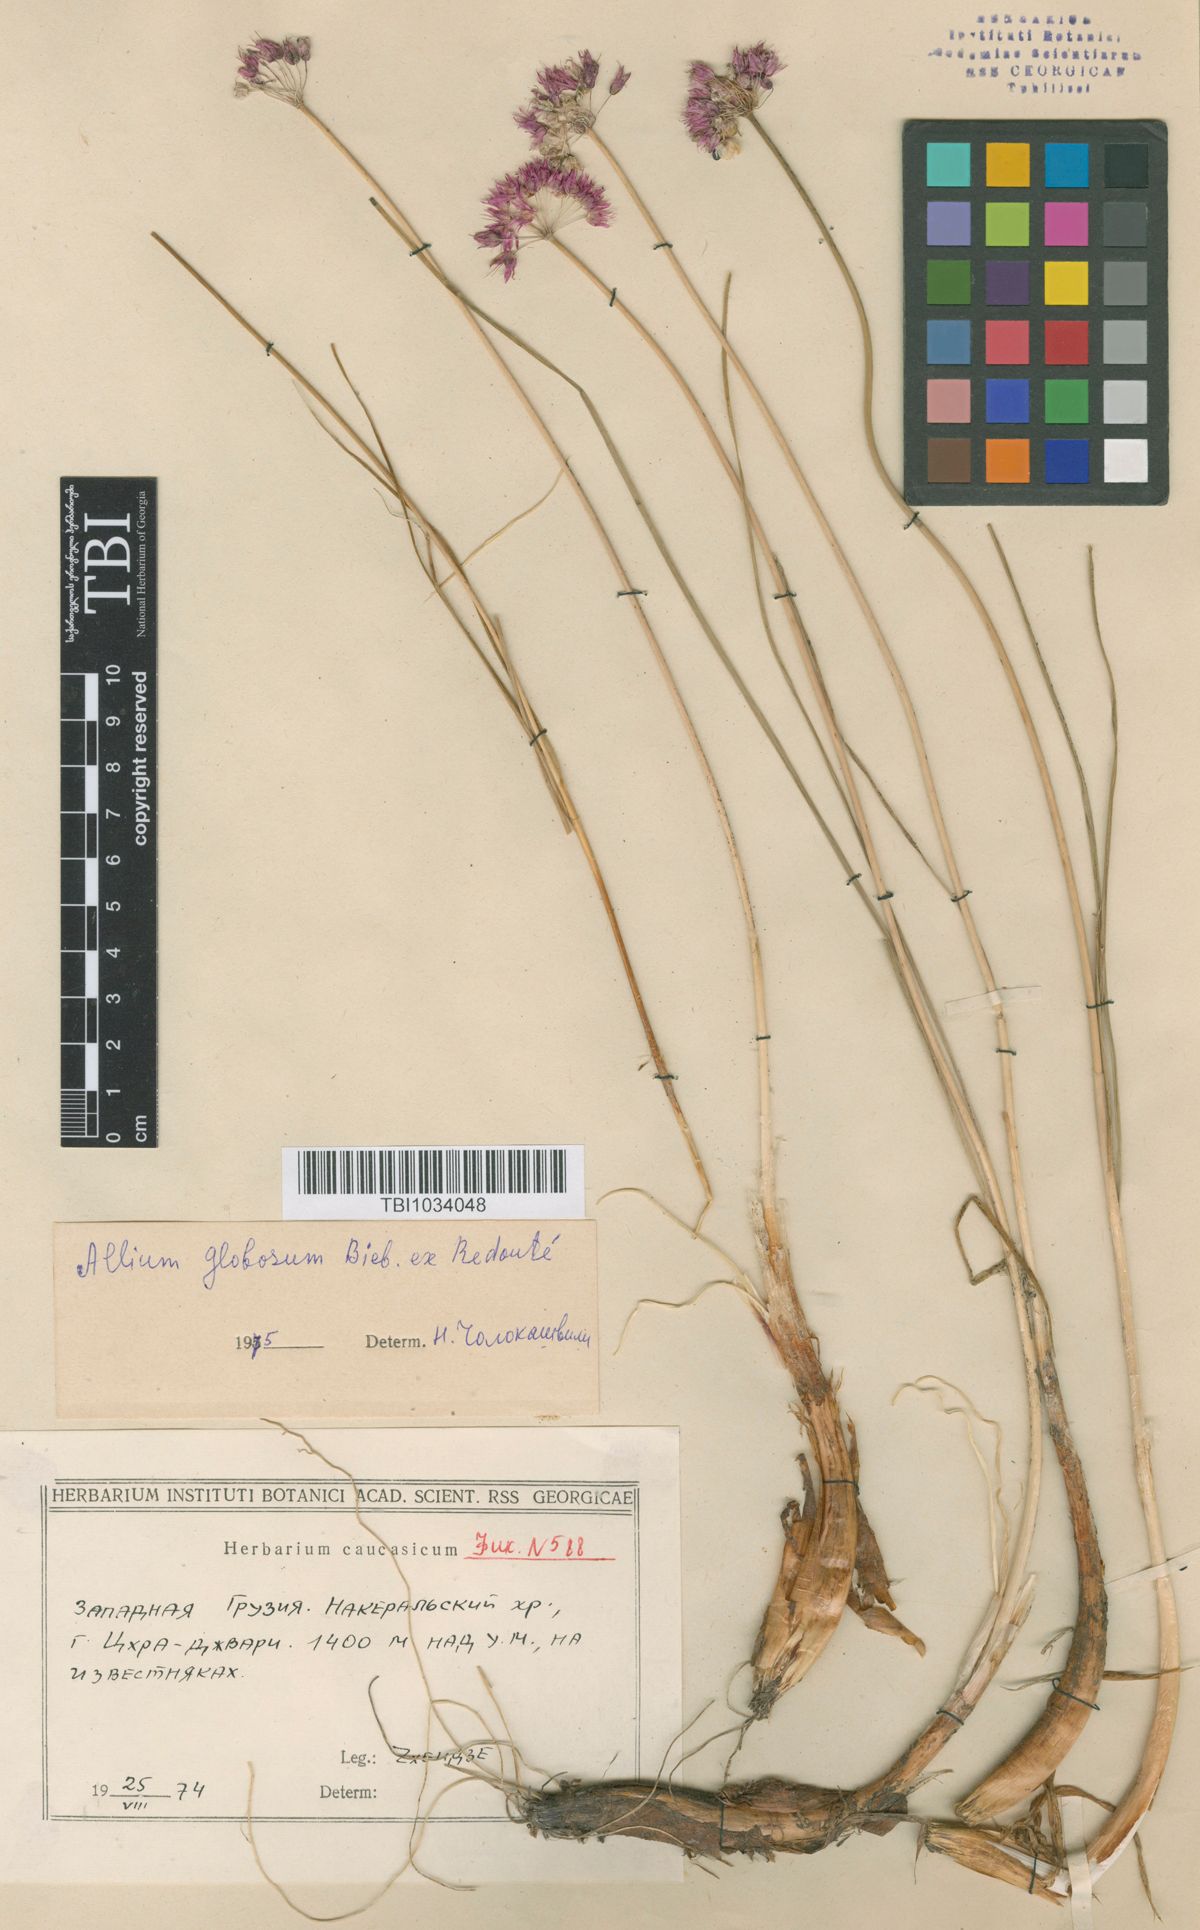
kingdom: Plantae
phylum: Tracheophyta
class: Liliopsida
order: Asparagales
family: Amaryllidaceae
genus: Allium
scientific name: Allium saxatile
